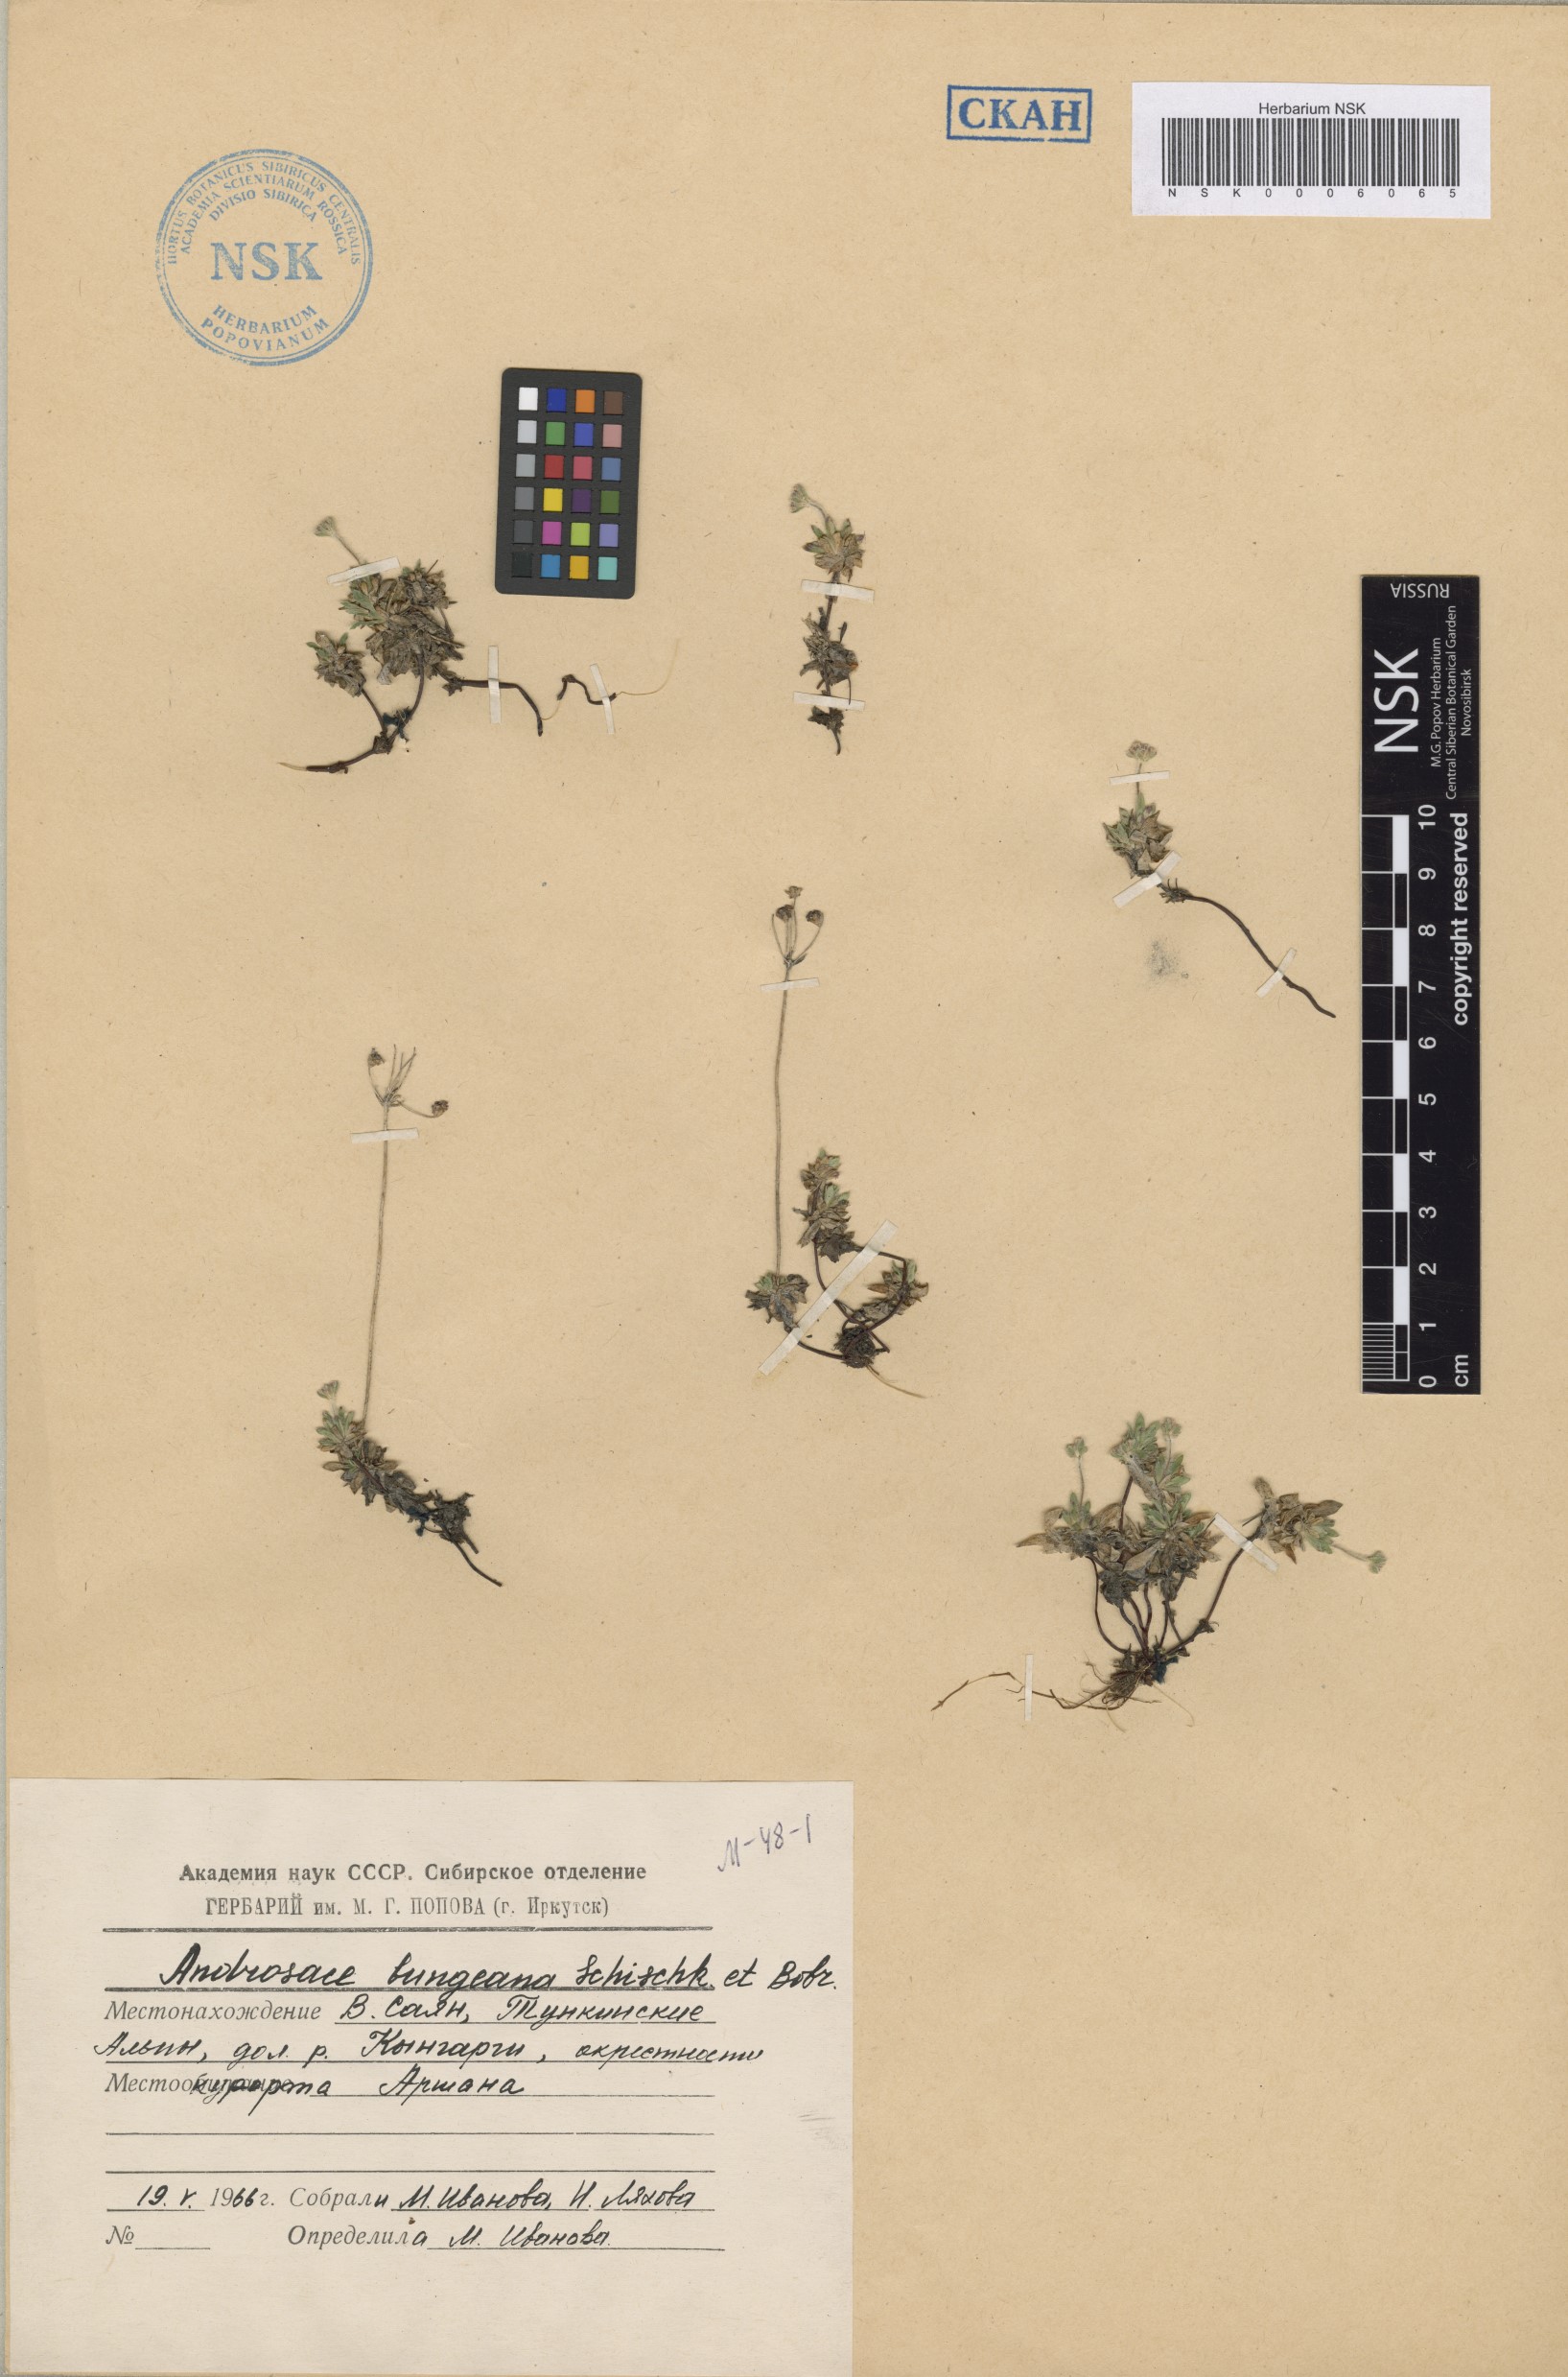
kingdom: Plantae
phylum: Tracheophyta
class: Magnoliopsida
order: Ericales
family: Primulaceae
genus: Androsace
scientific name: Androsace bungeana
